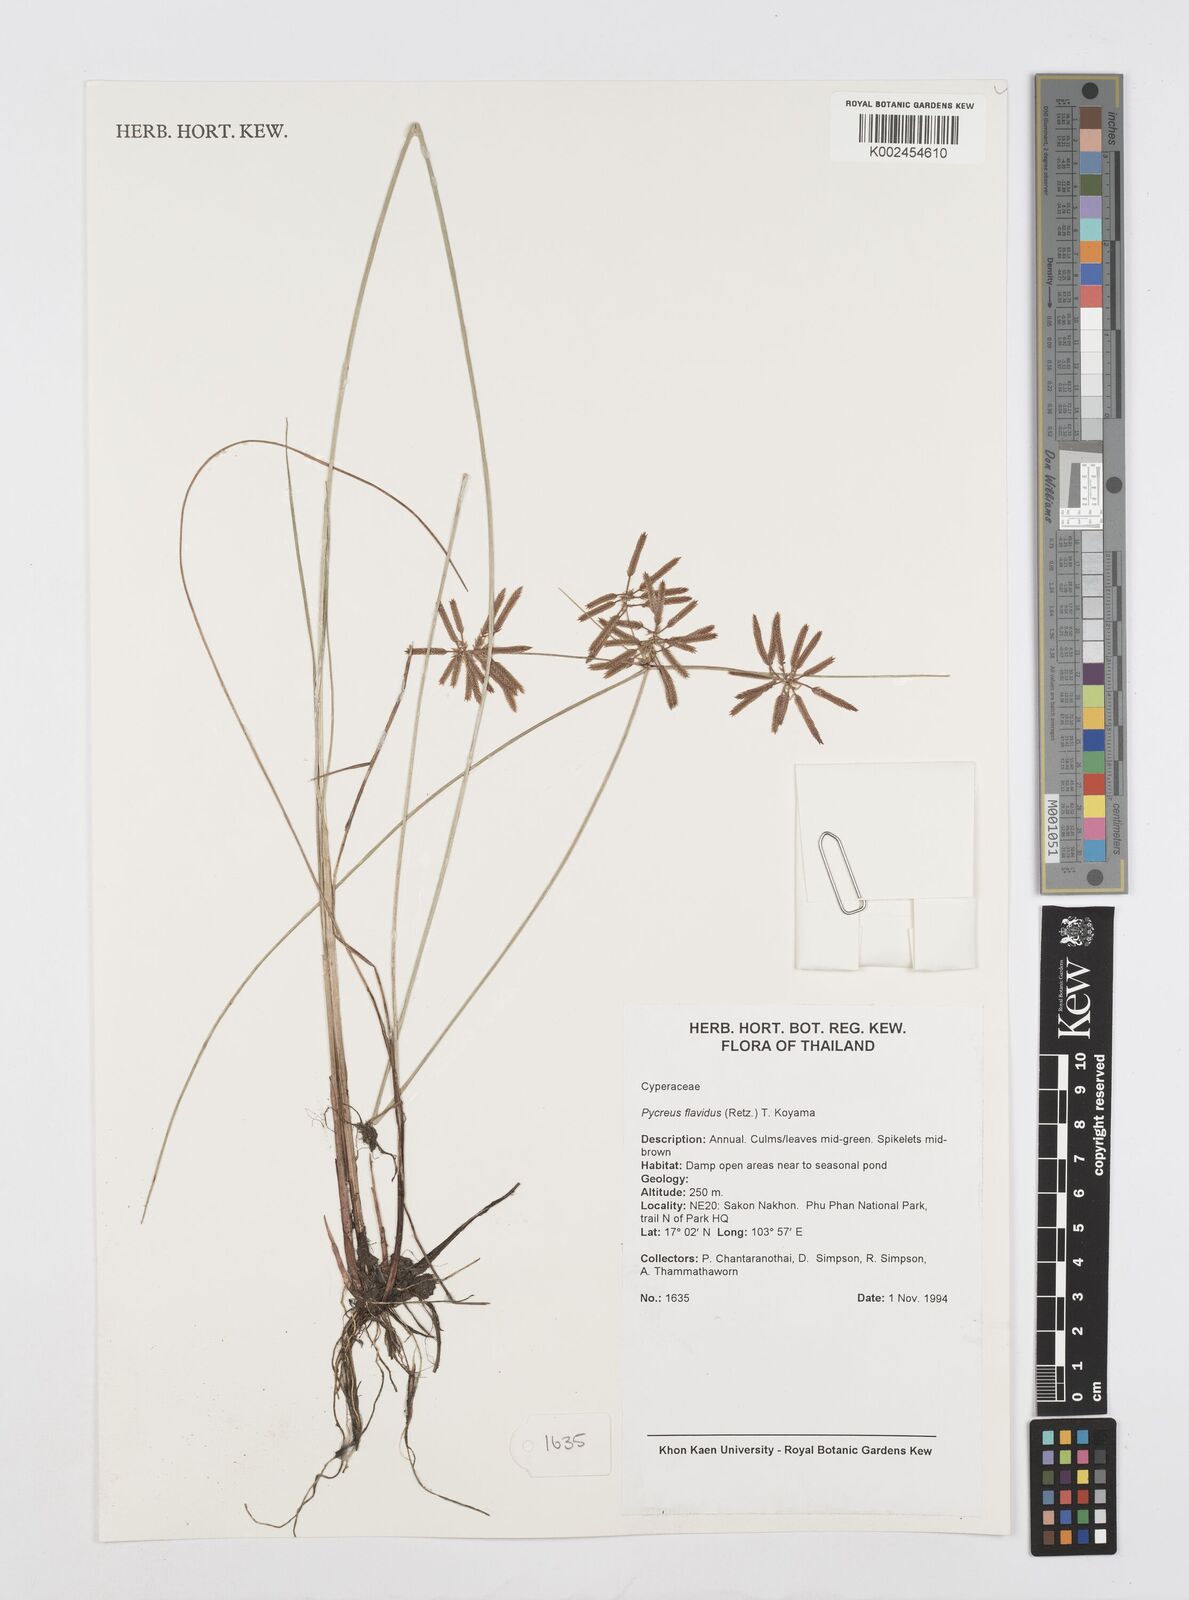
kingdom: Plantae
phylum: Tracheophyta
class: Liliopsida
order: Poales
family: Cyperaceae
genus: Cyperus
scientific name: Cyperus flavidus
